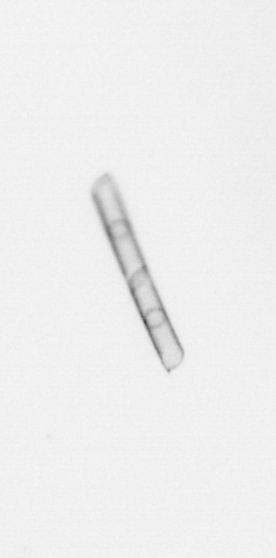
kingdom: Chromista
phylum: Ochrophyta
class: Bacillariophyceae
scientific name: Bacillariophyceae
